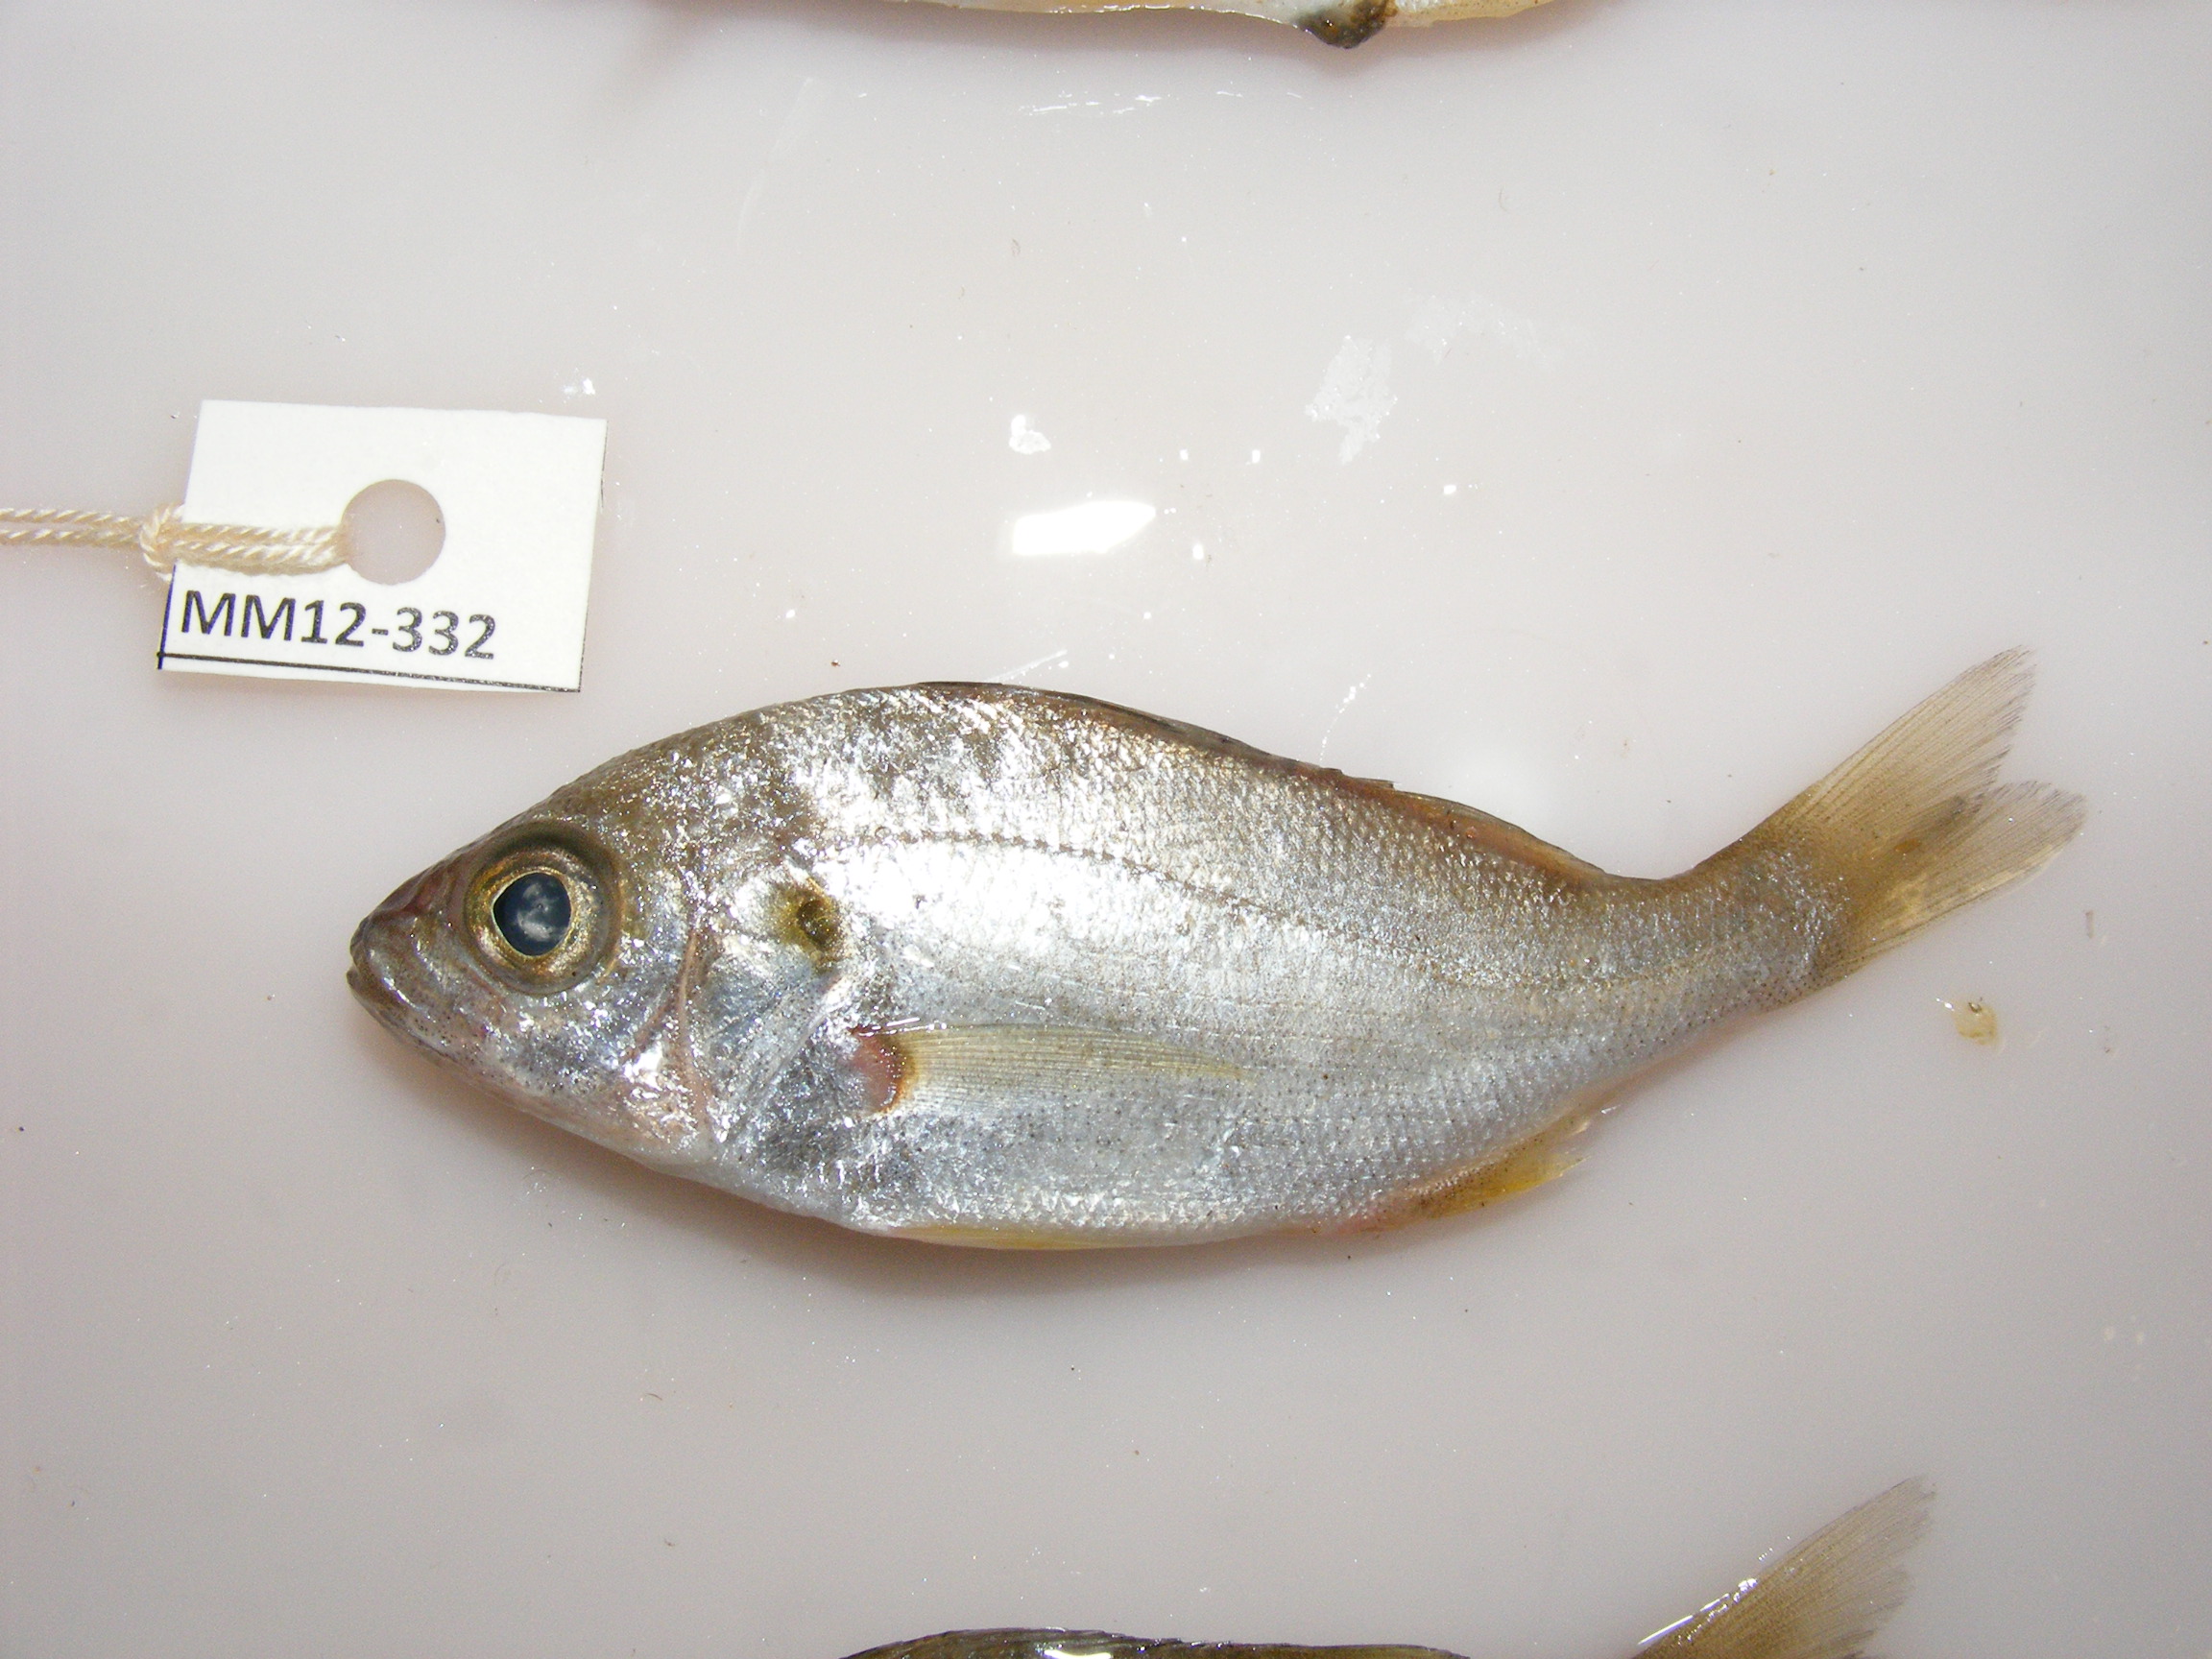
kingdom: Animalia
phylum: Chordata
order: Perciformes
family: Haemulidae
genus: Pomadasys
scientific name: Pomadasys olivaceus
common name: Olive grunt
